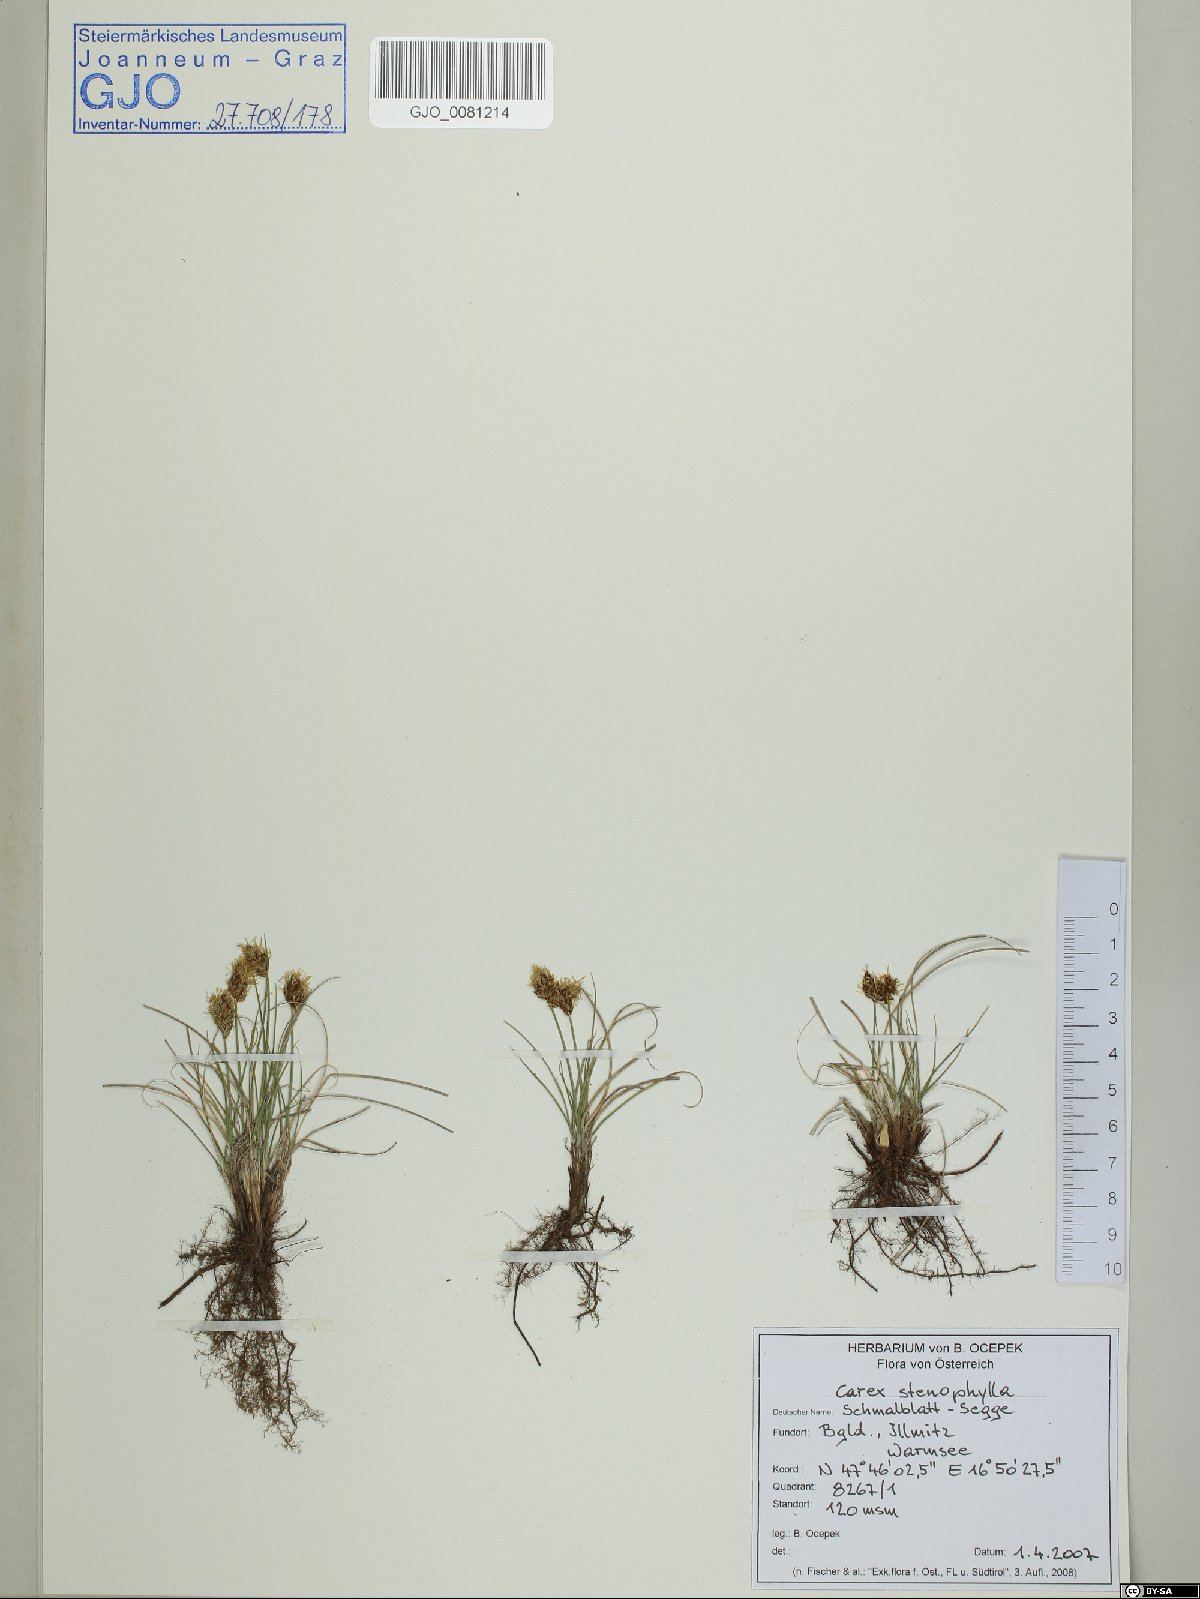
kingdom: Plantae
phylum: Tracheophyta
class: Liliopsida
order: Poales
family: Cyperaceae
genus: Carex
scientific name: Carex stenophylla
